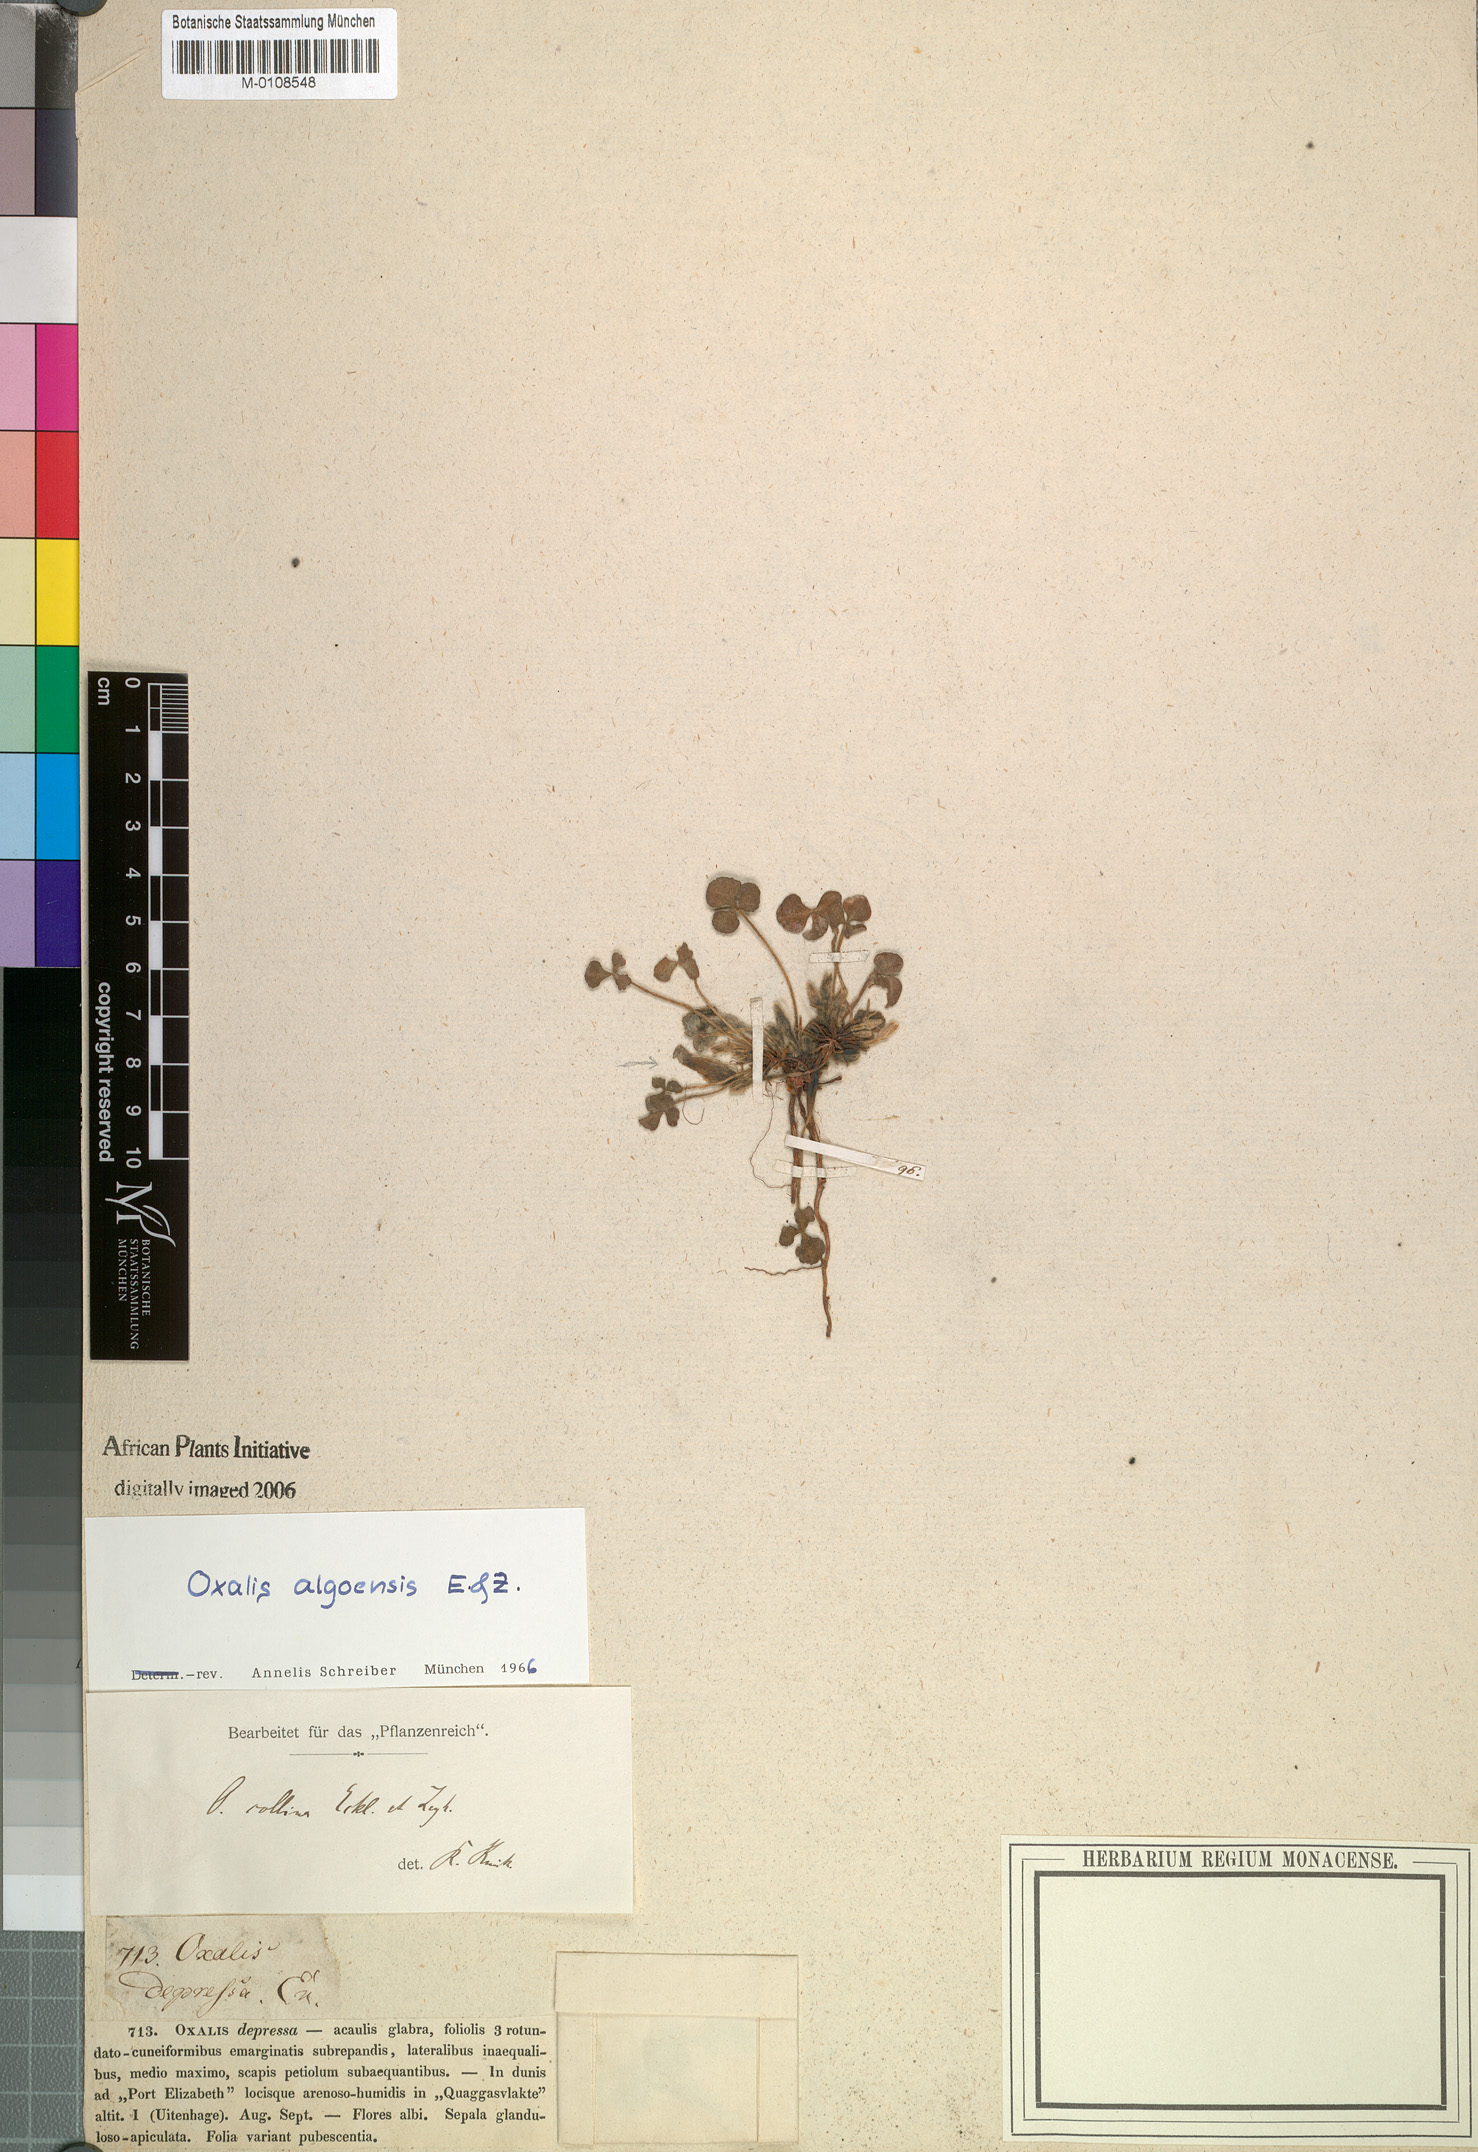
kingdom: Plantae
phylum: Tracheophyta
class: Magnoliopsida
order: Oxalidales
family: Oxalidaceae
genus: Oxalis
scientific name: Oxalis algoensis
